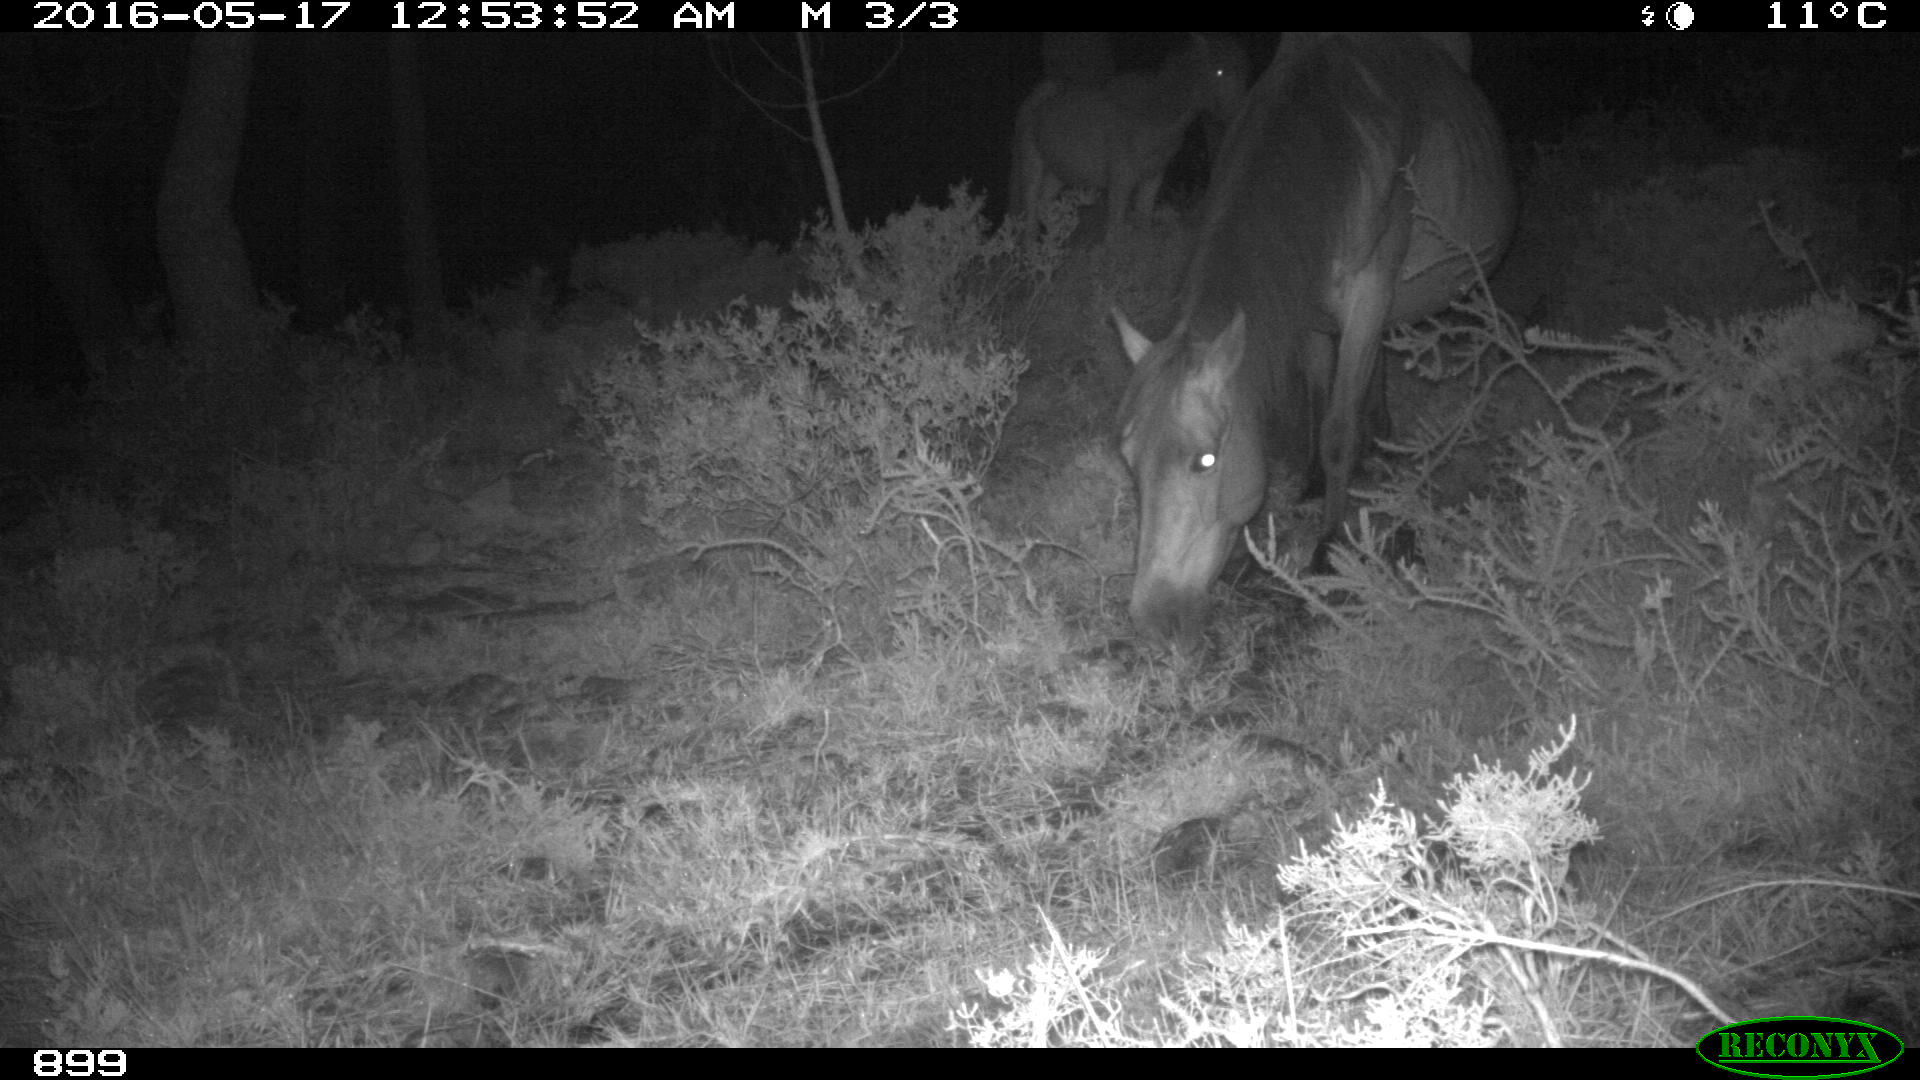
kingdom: Animalia
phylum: Chordata
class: Mammalia
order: Perissodactyla
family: Equidae
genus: Equus
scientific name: Equus caballus
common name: Horse
